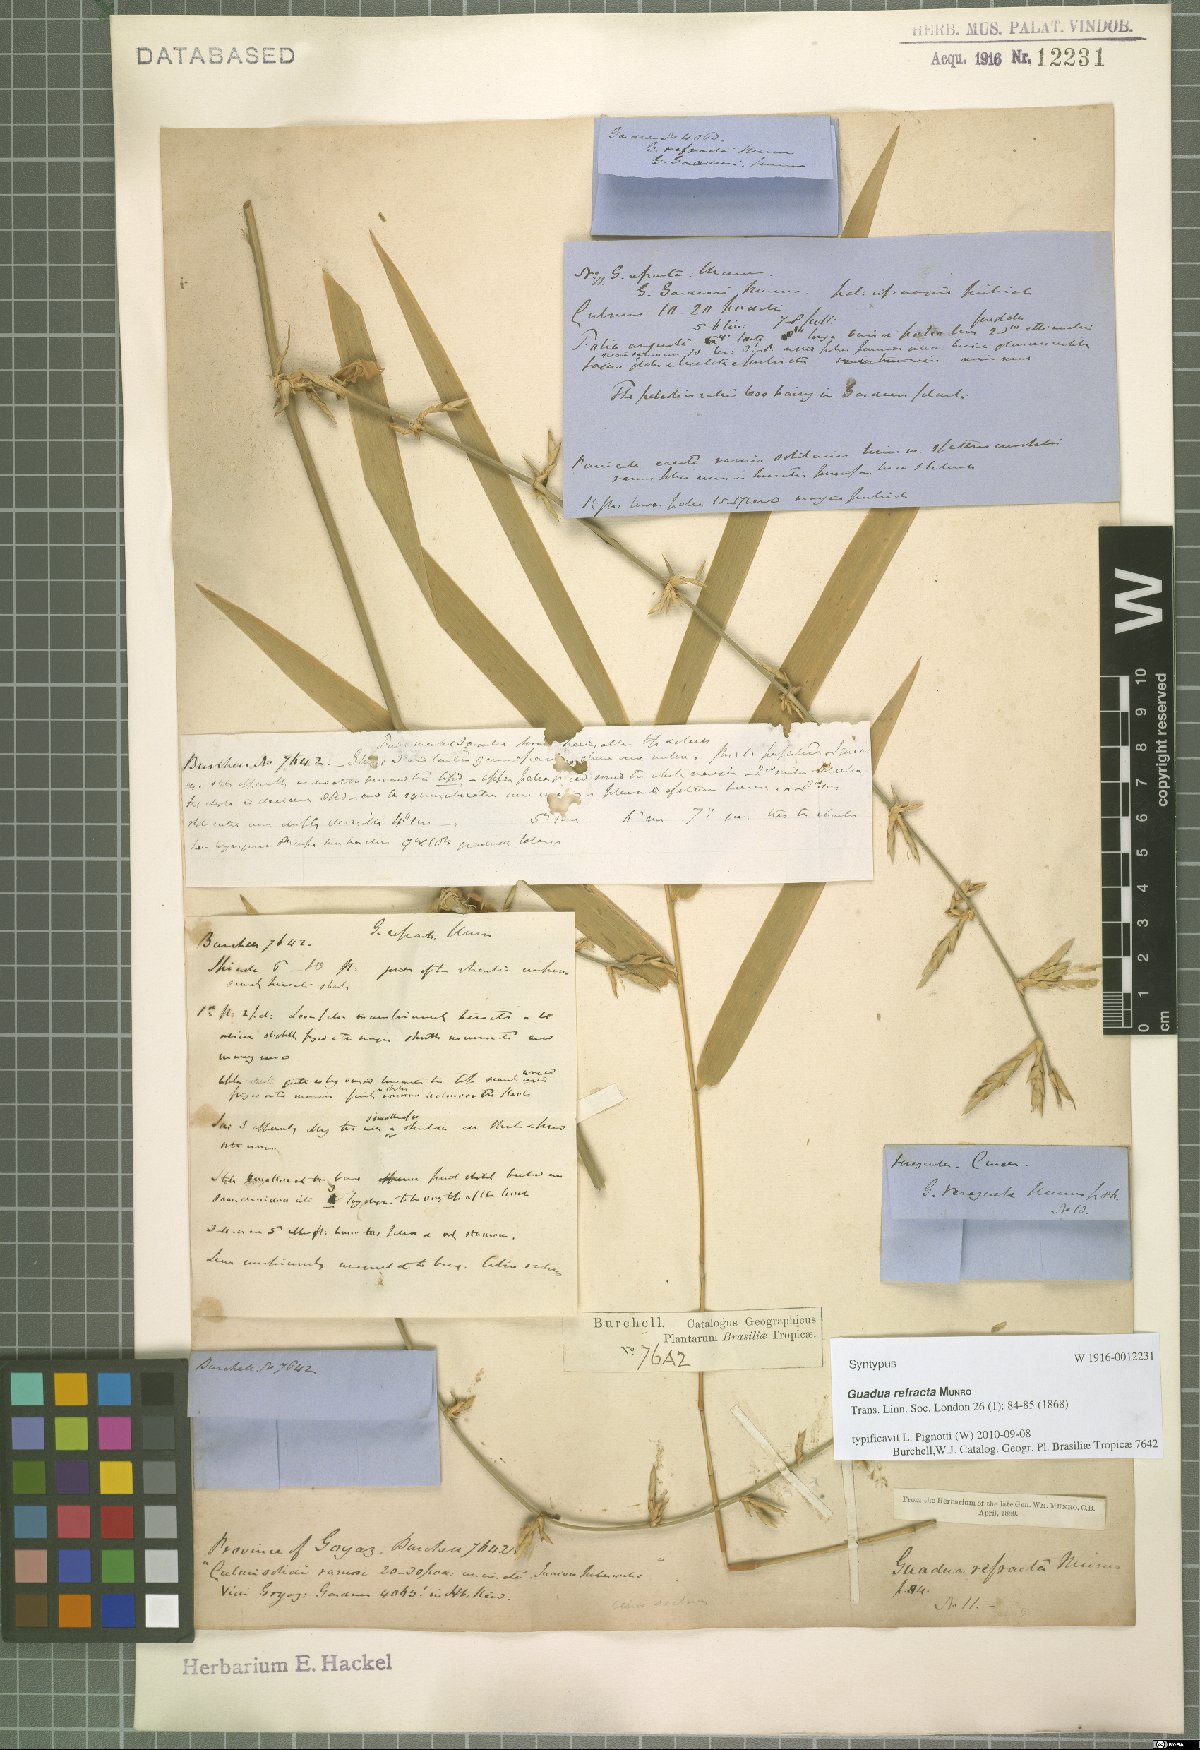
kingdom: Plantae
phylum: Tracheophyta
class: Liliopsida
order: Poales
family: Poaceae
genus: Guadua
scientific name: Guadua refracta
